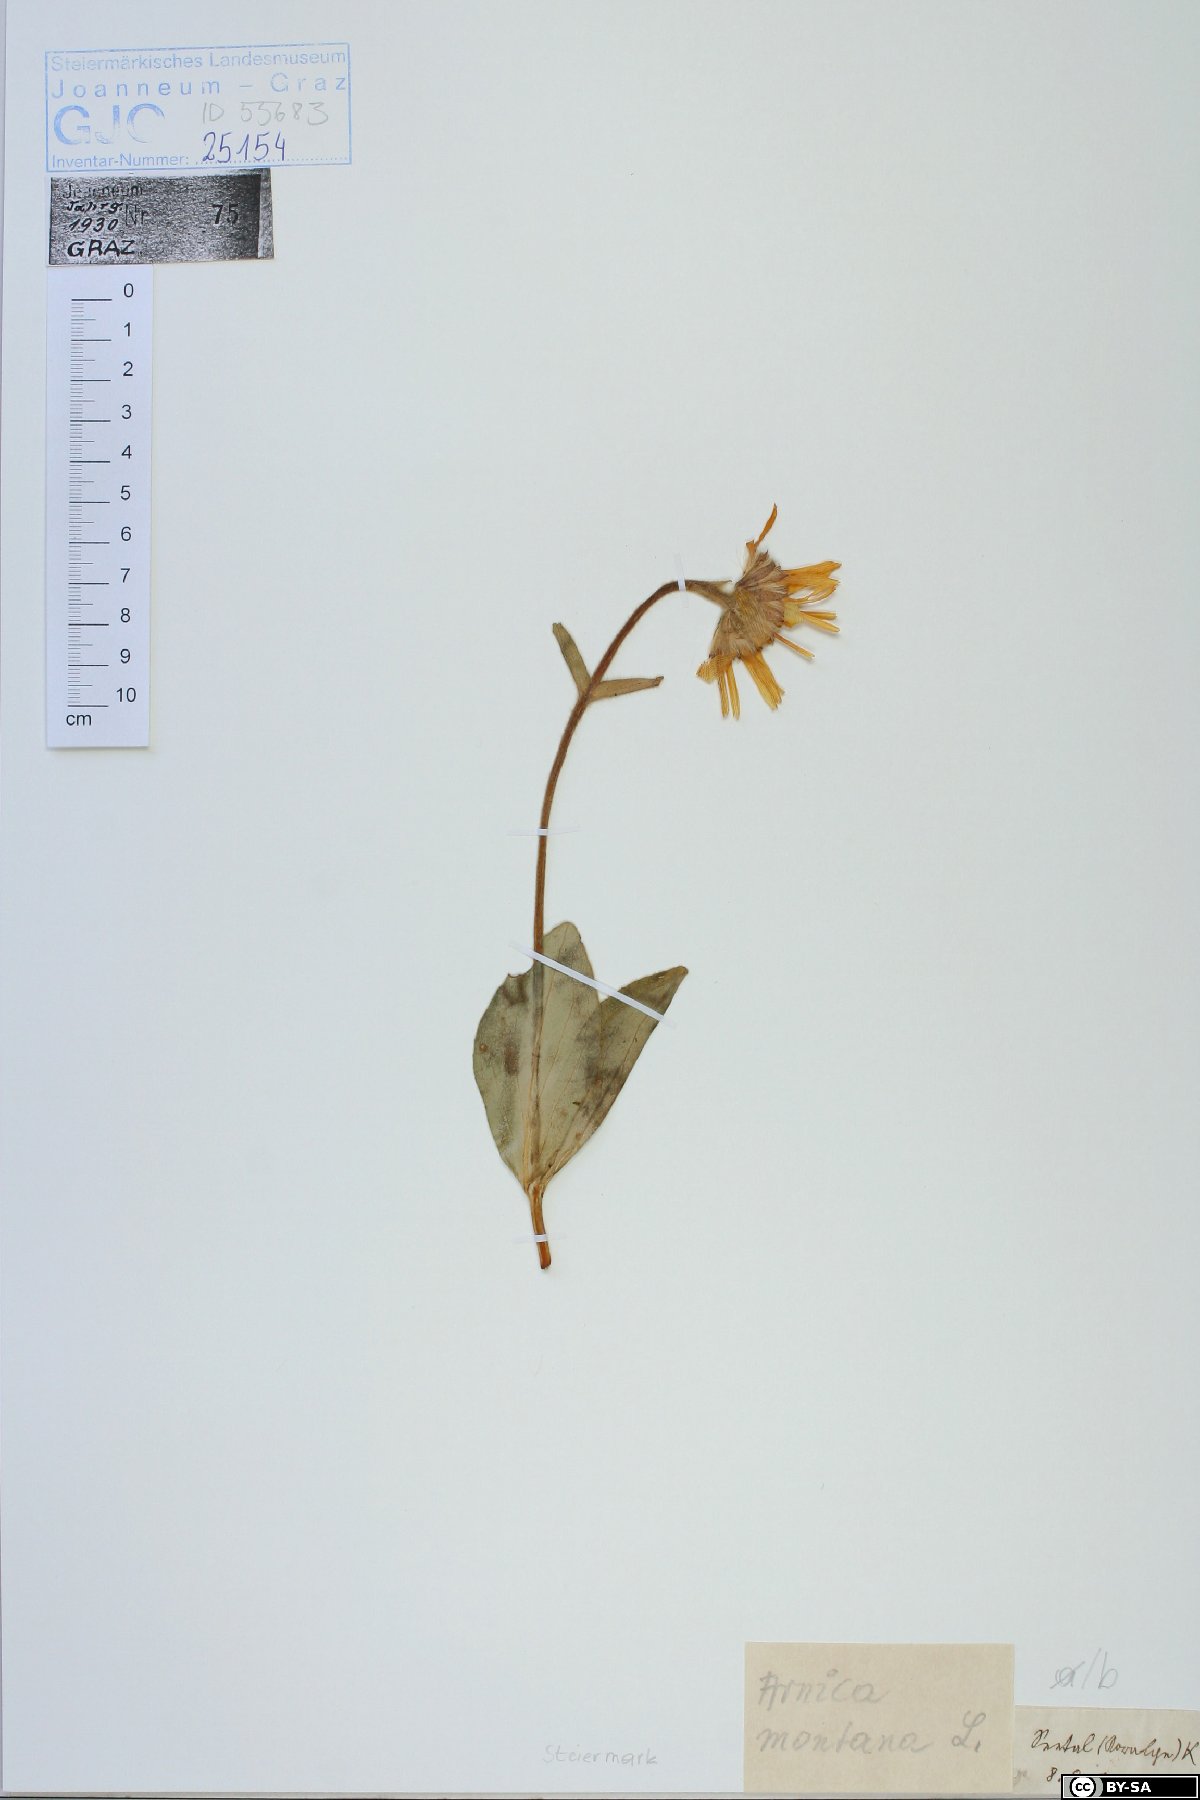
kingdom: Plantae
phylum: Tracheophyta
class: Magnoliopsida
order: Asterales
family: Asteraceae
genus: Arnica
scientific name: Arnica montana
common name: Leopard's bane
